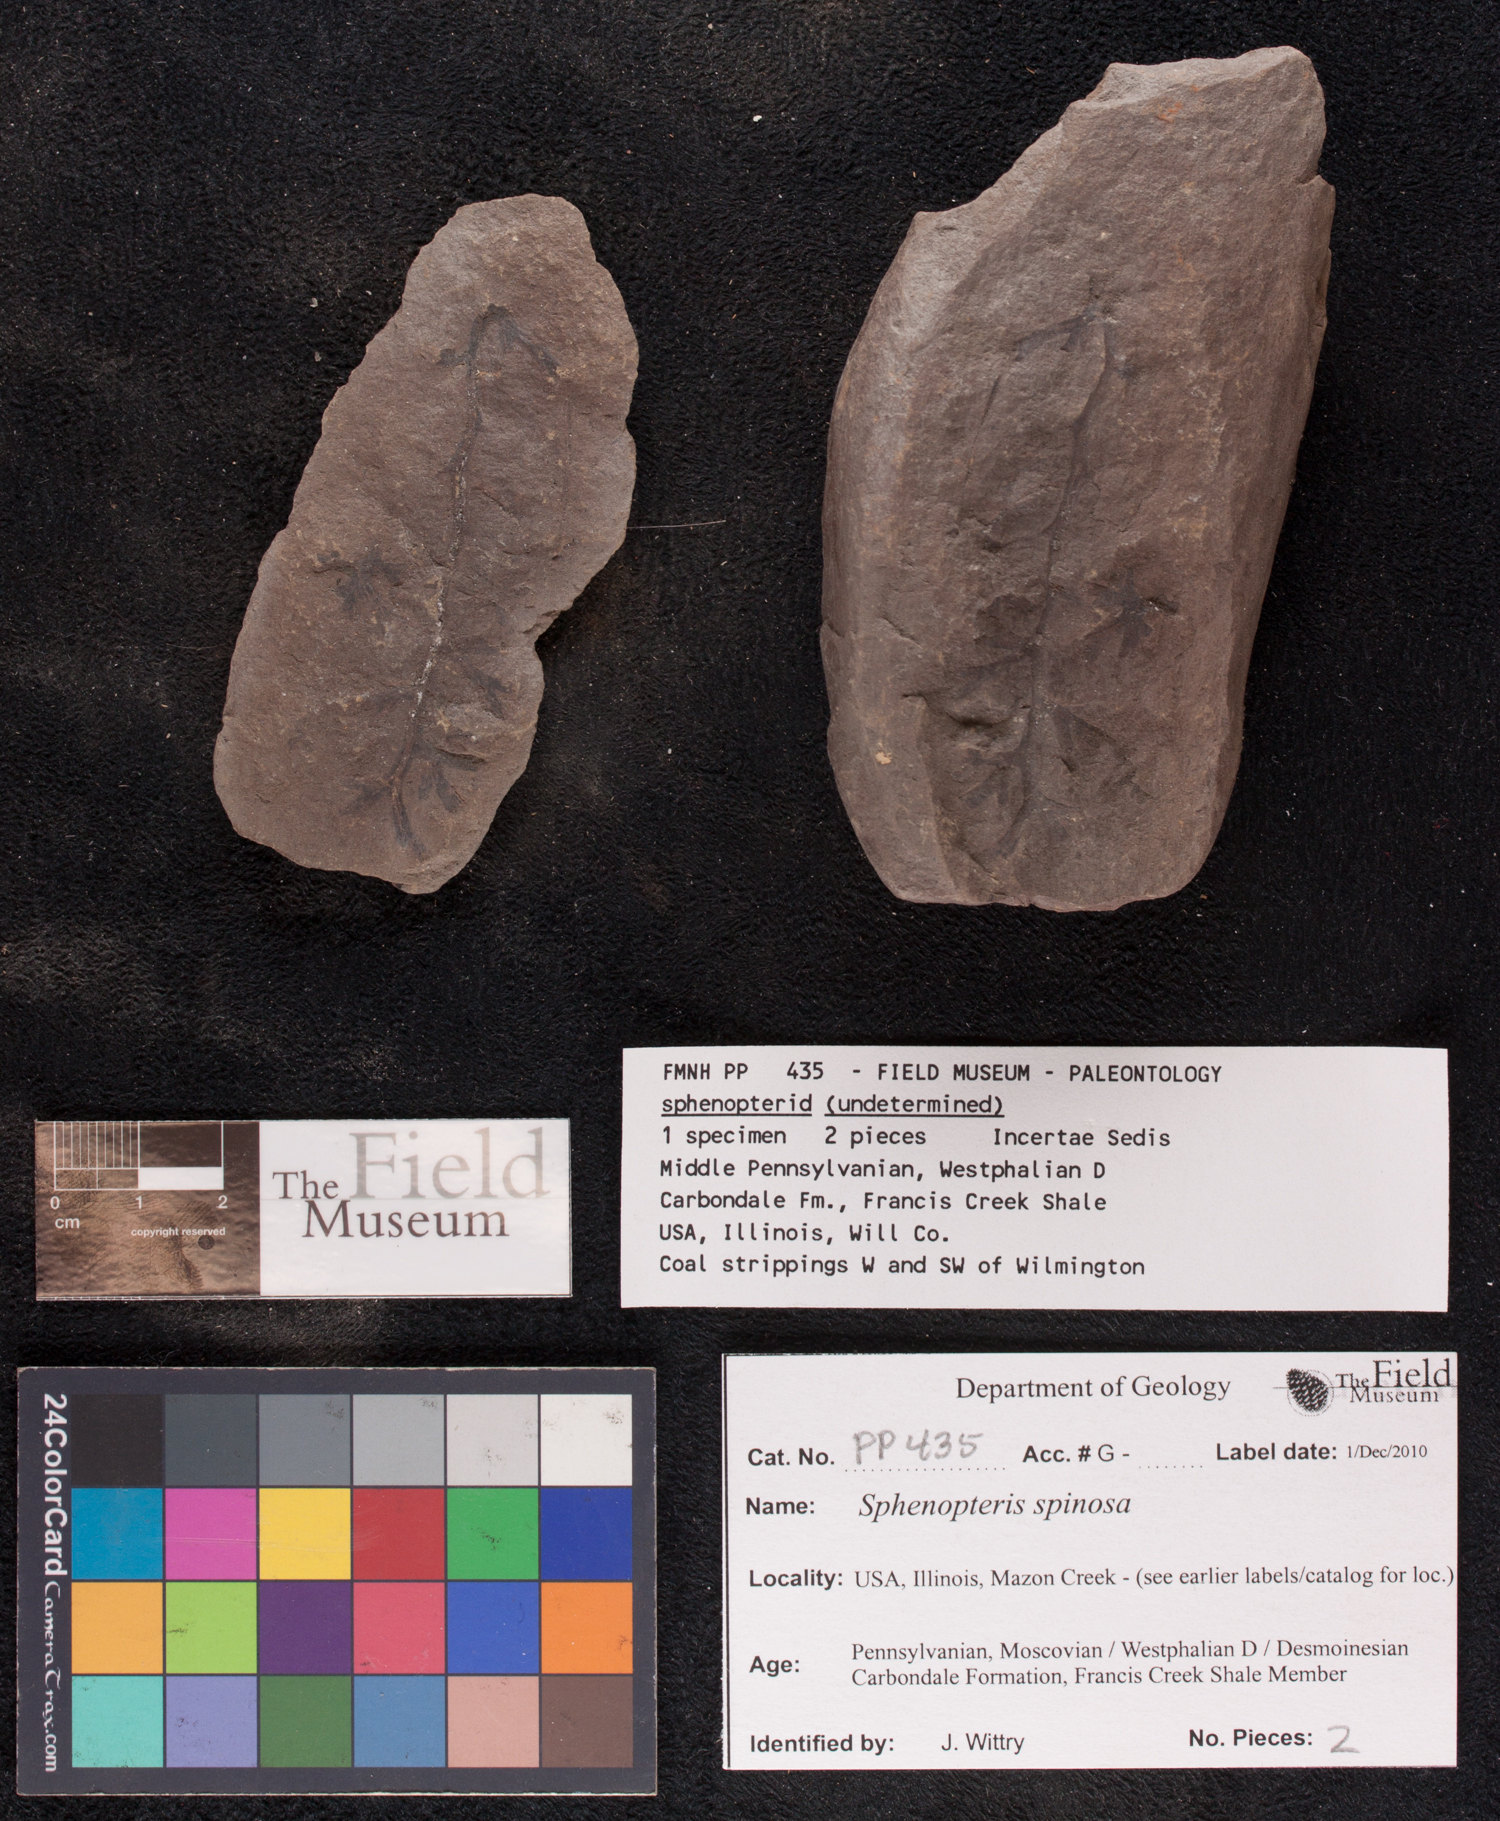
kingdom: Plantae
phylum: Tracheophyta
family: Lyginopteridaceae
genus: Sphenopteris
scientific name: Sphenopteris
